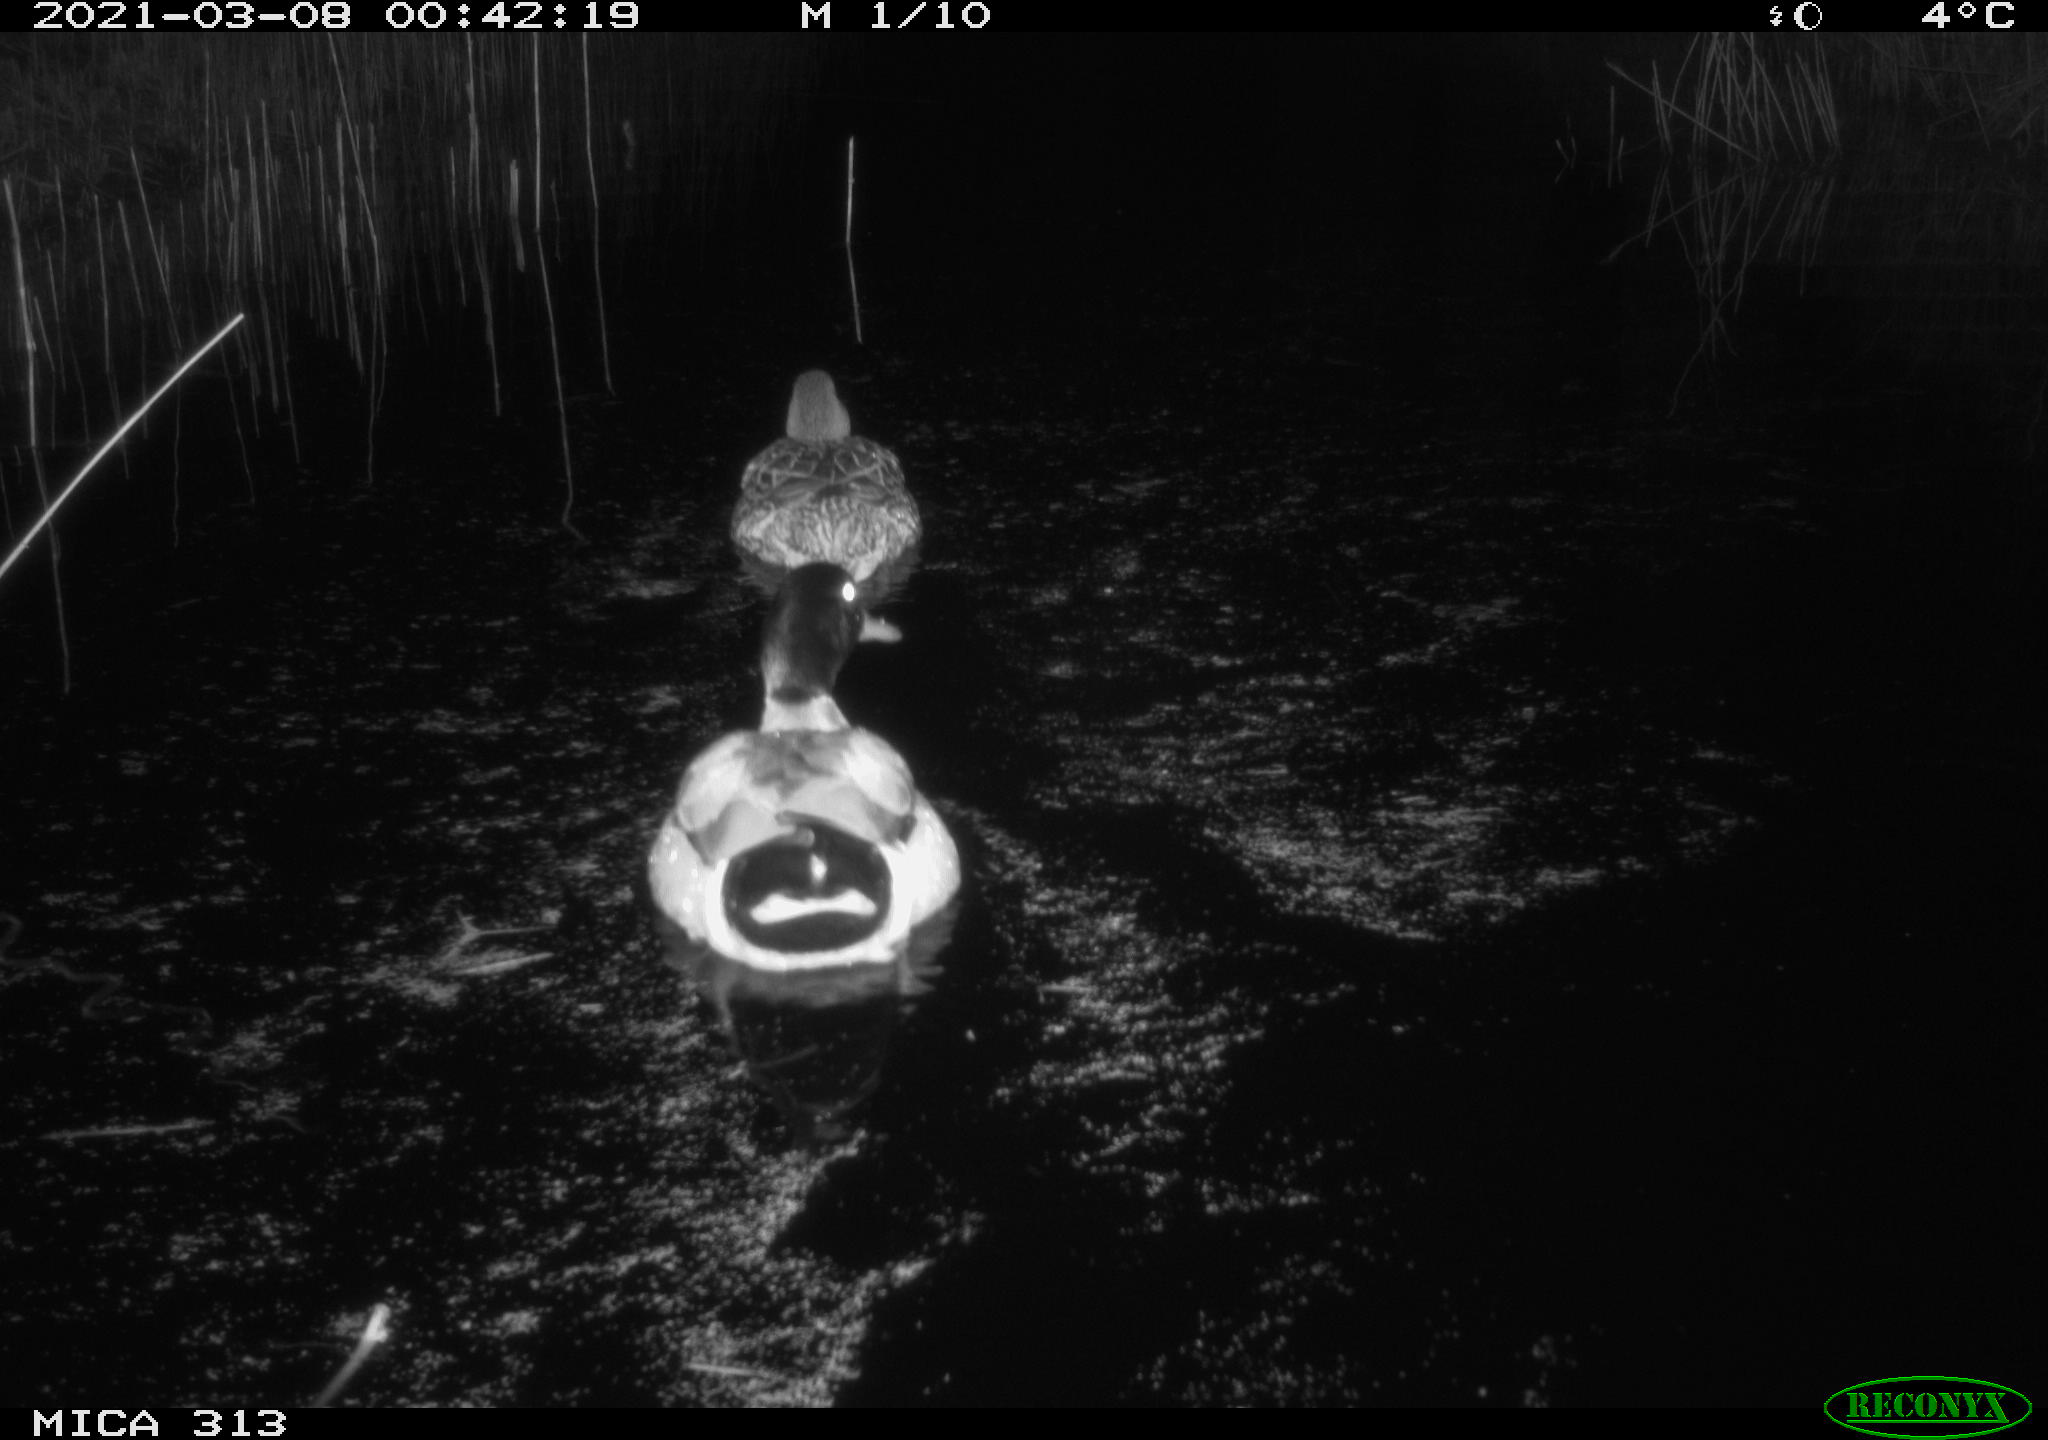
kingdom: Animalia
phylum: Chordata
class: Aves
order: Anseriformes
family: Anatidae
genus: Anas
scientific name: Anas platyrhynchos
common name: Mallard
